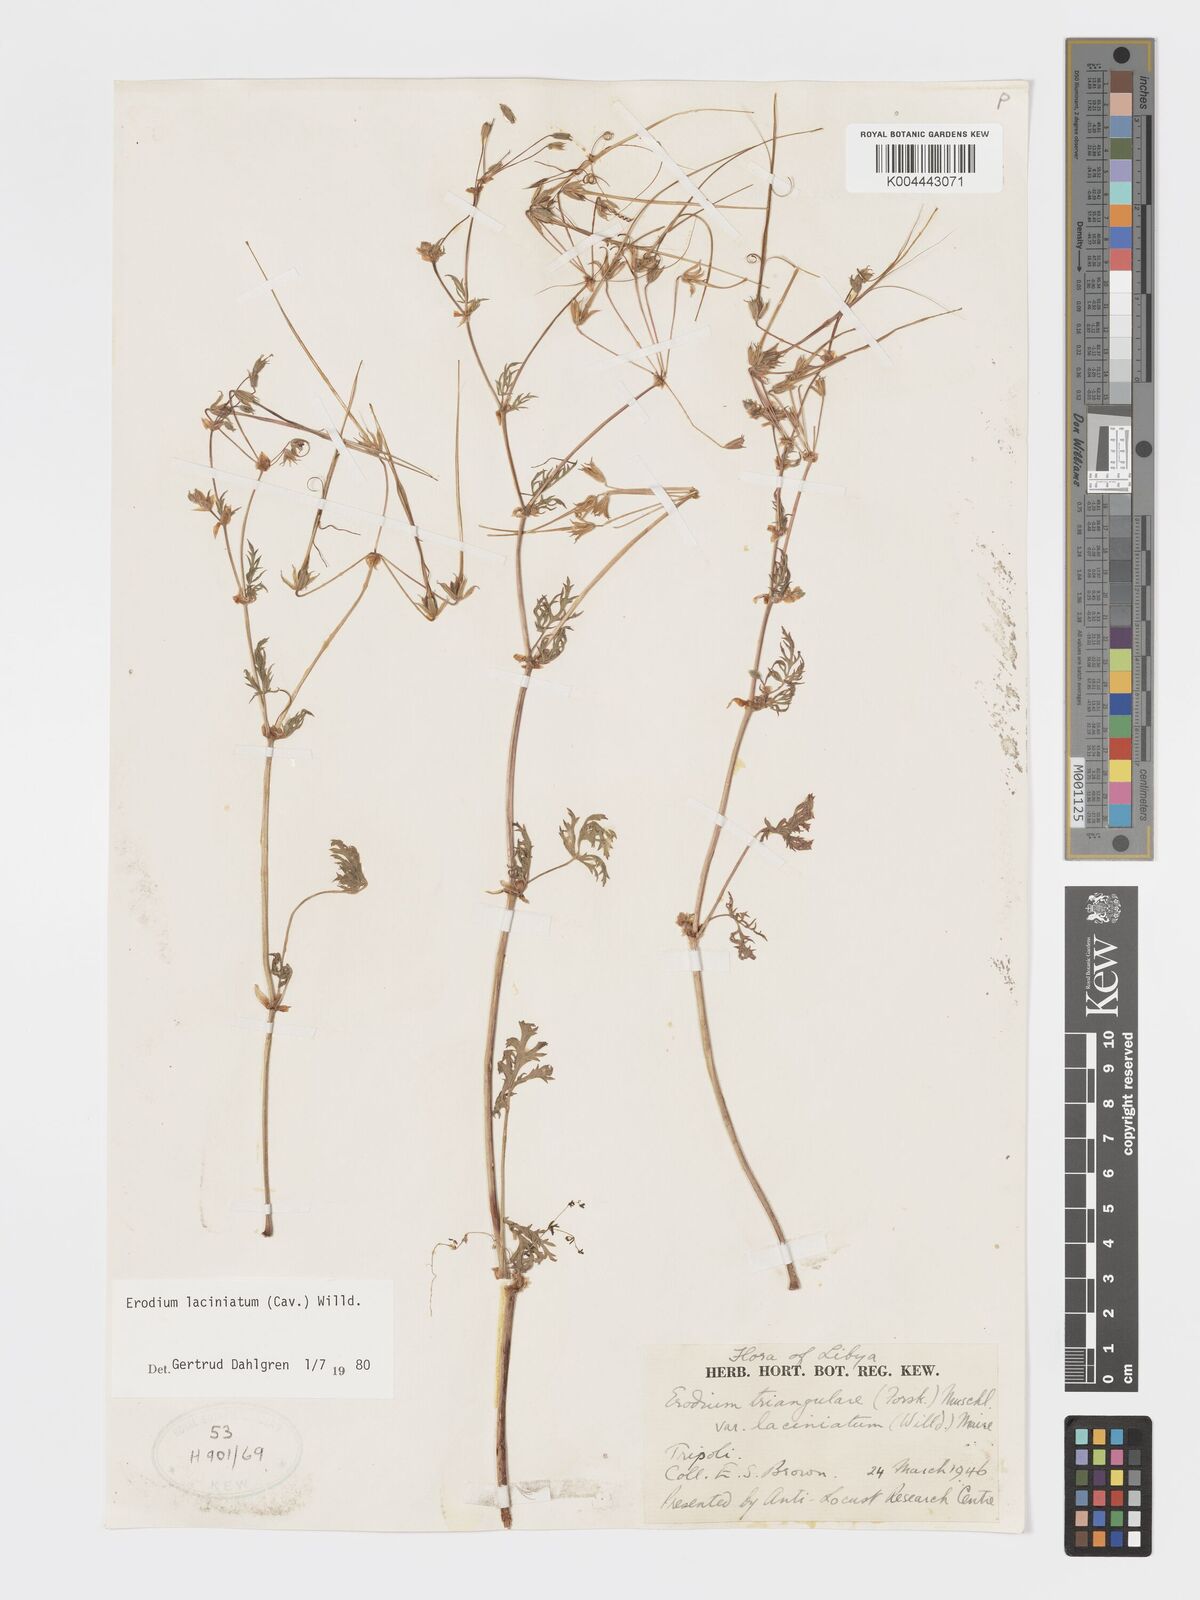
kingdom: Plantae
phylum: Tracheophyta
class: Magnoliopsida
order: Geraniales
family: Geraniaceae
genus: Erodium
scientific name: Erodium laciniatum
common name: Cutleaf stork's bill
